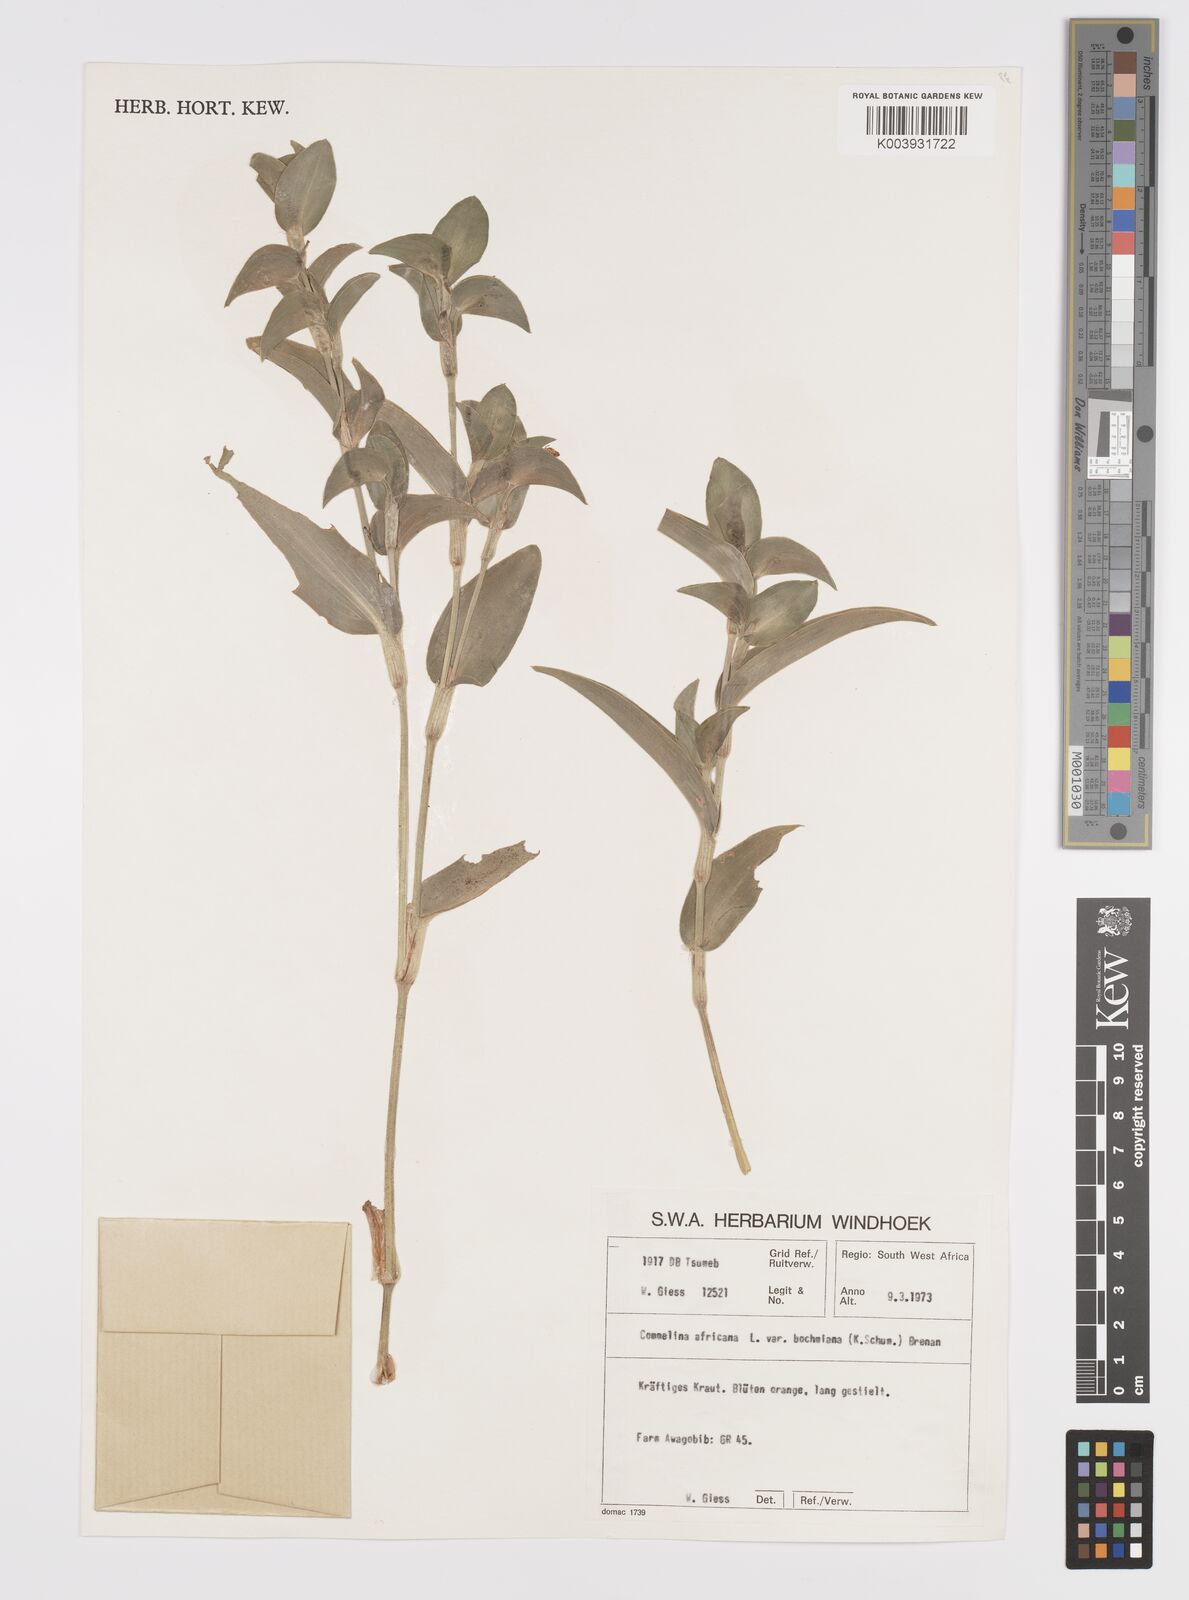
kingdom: Plantae
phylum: Tracheophyta
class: Liliopsida
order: Commelinales
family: Commelinaceae
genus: Commelina
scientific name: Commelina africana
